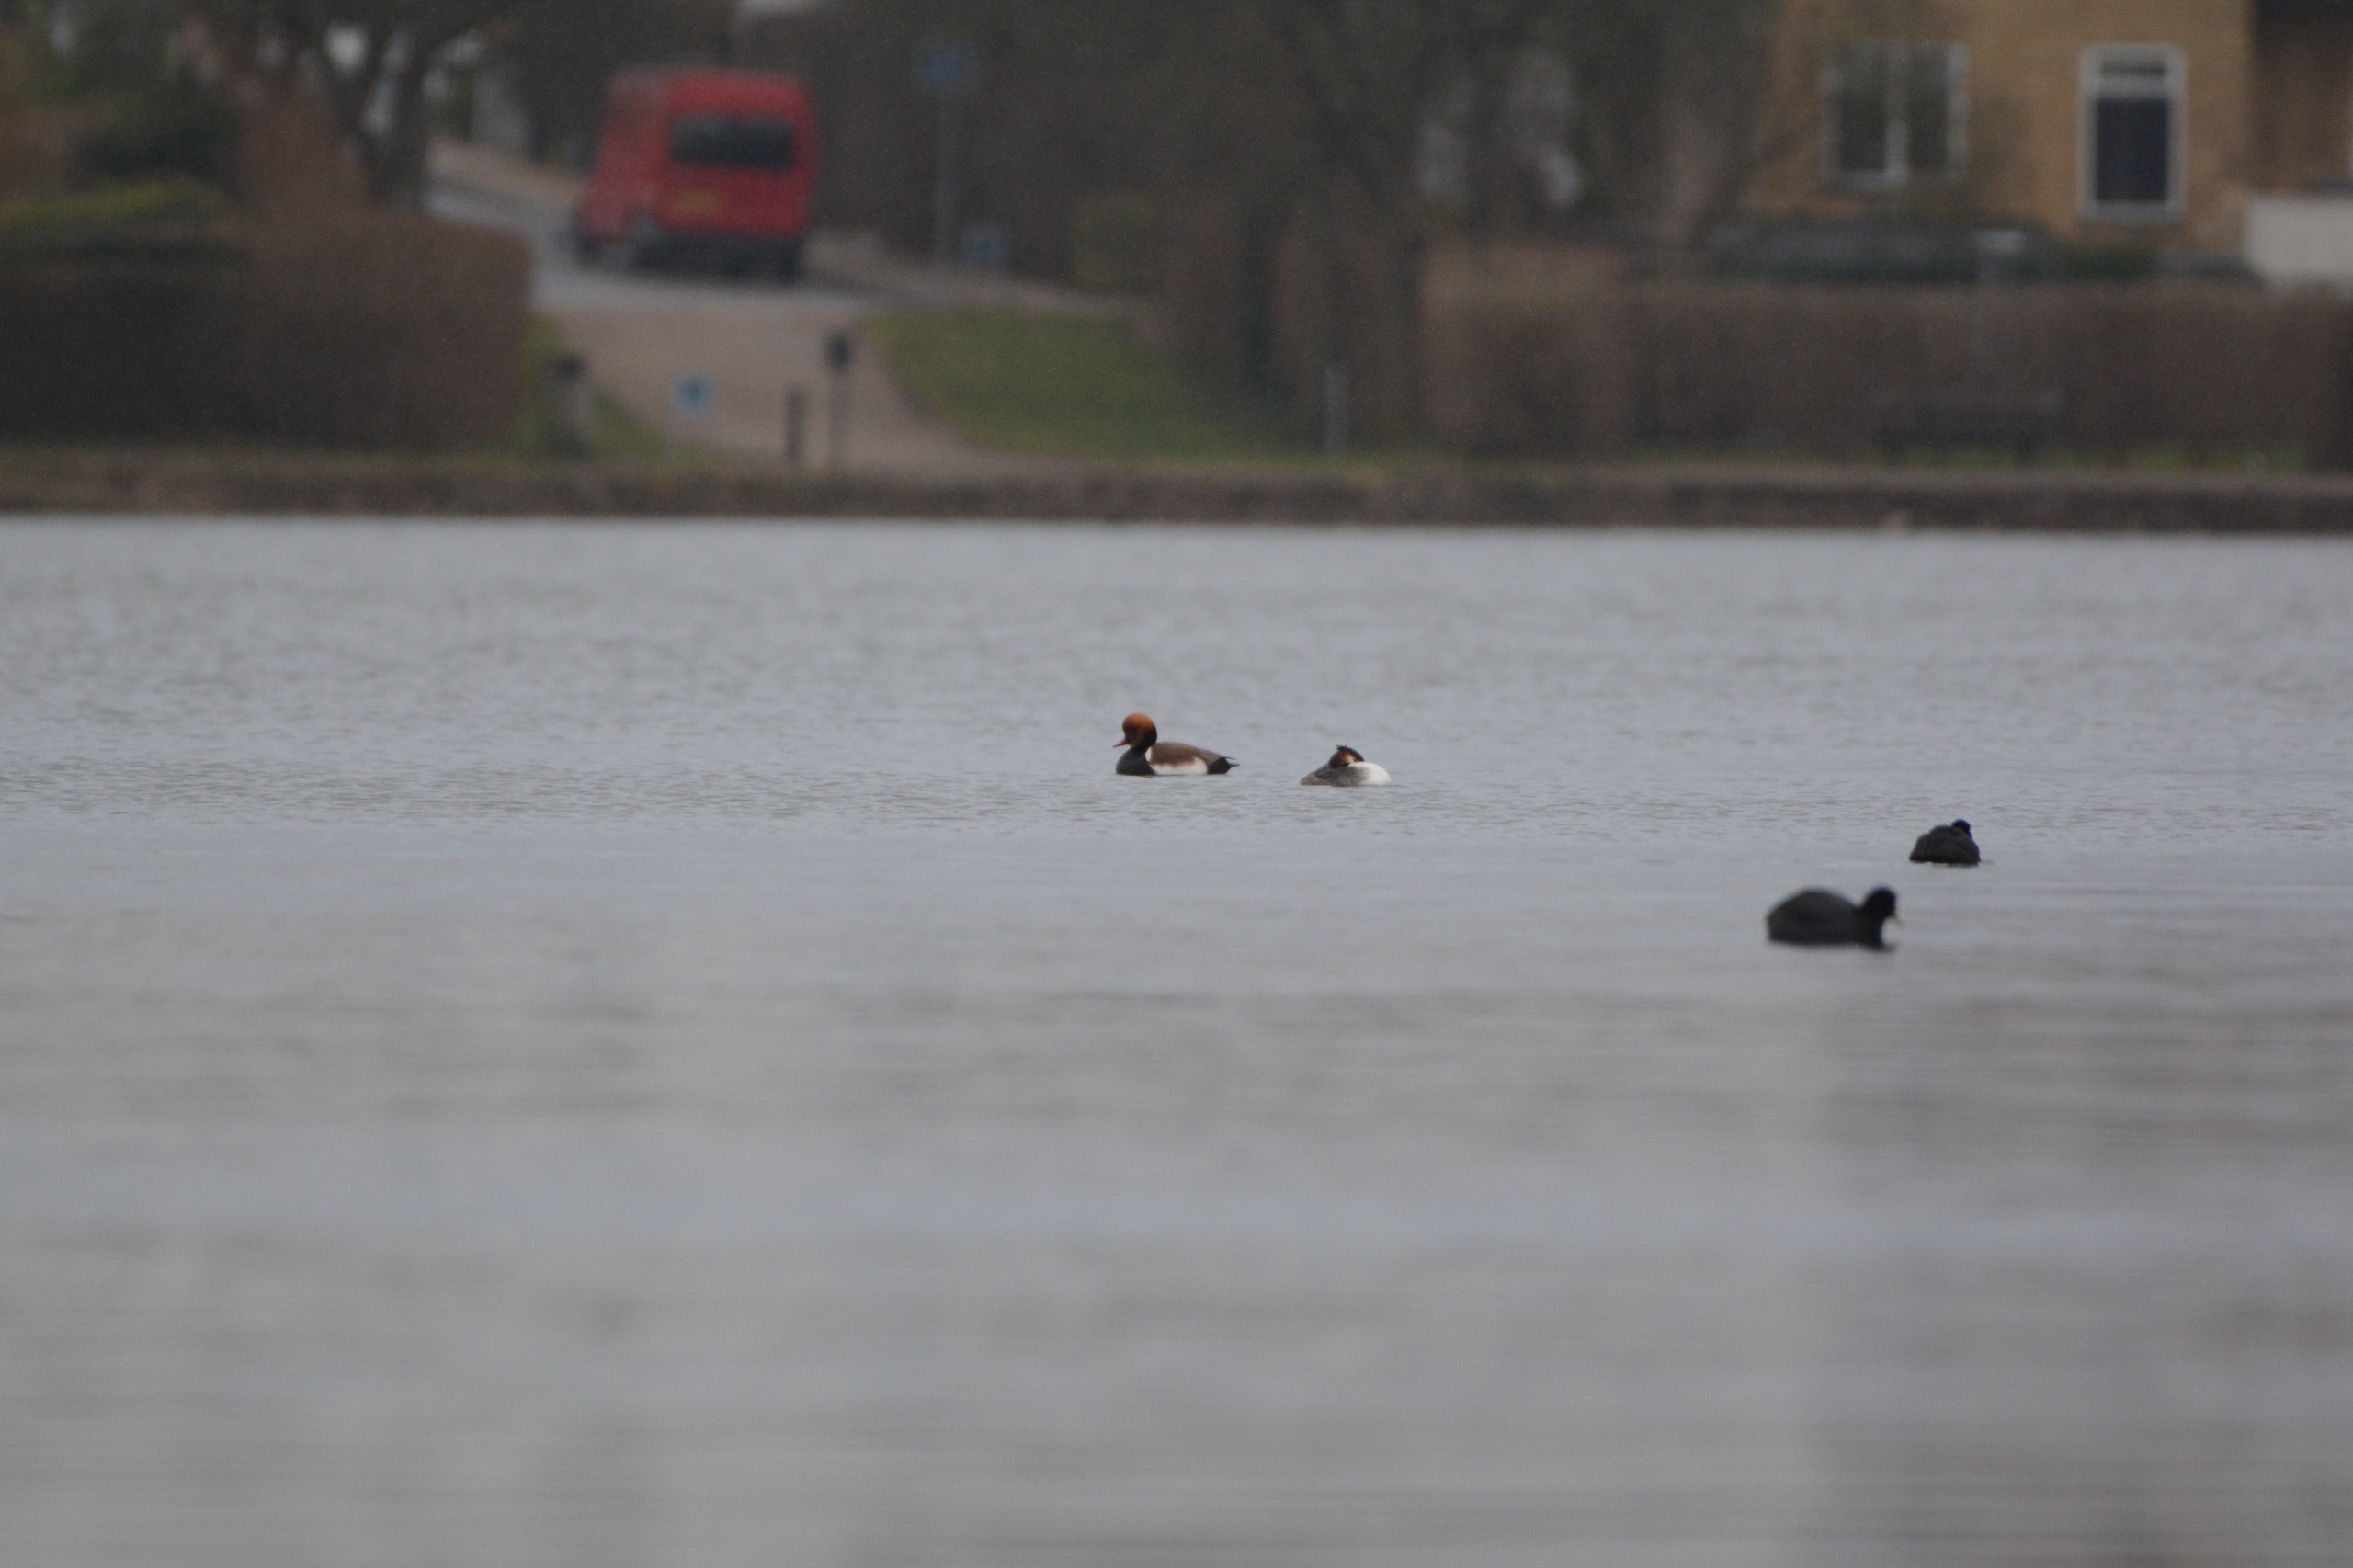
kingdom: Animalia
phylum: Chordata
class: Aves
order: Anseriformes
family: Anatidae
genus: Netta
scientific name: Netta rufina
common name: Rødhovedet and
